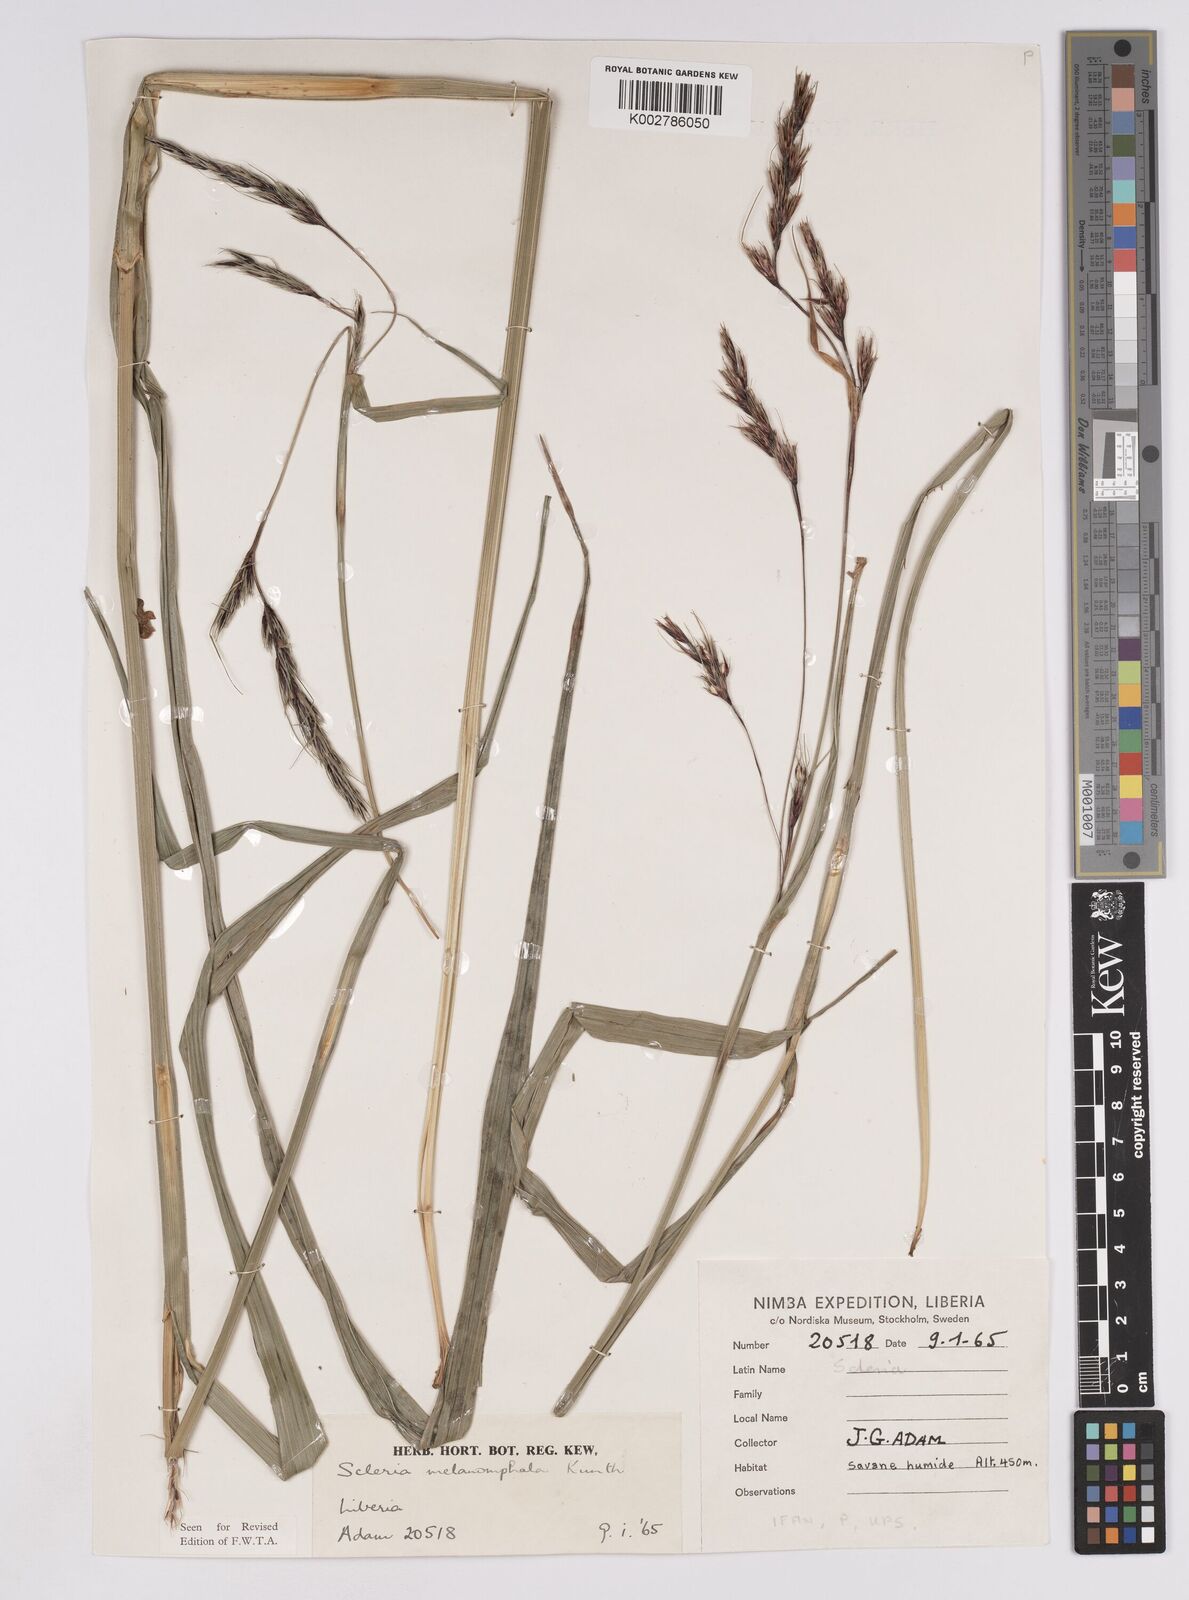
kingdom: Plantae
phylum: Tracheophyta
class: Liliopsida
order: Poales
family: Cyperaceae
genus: Scleria
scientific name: Scleria melanomphala
